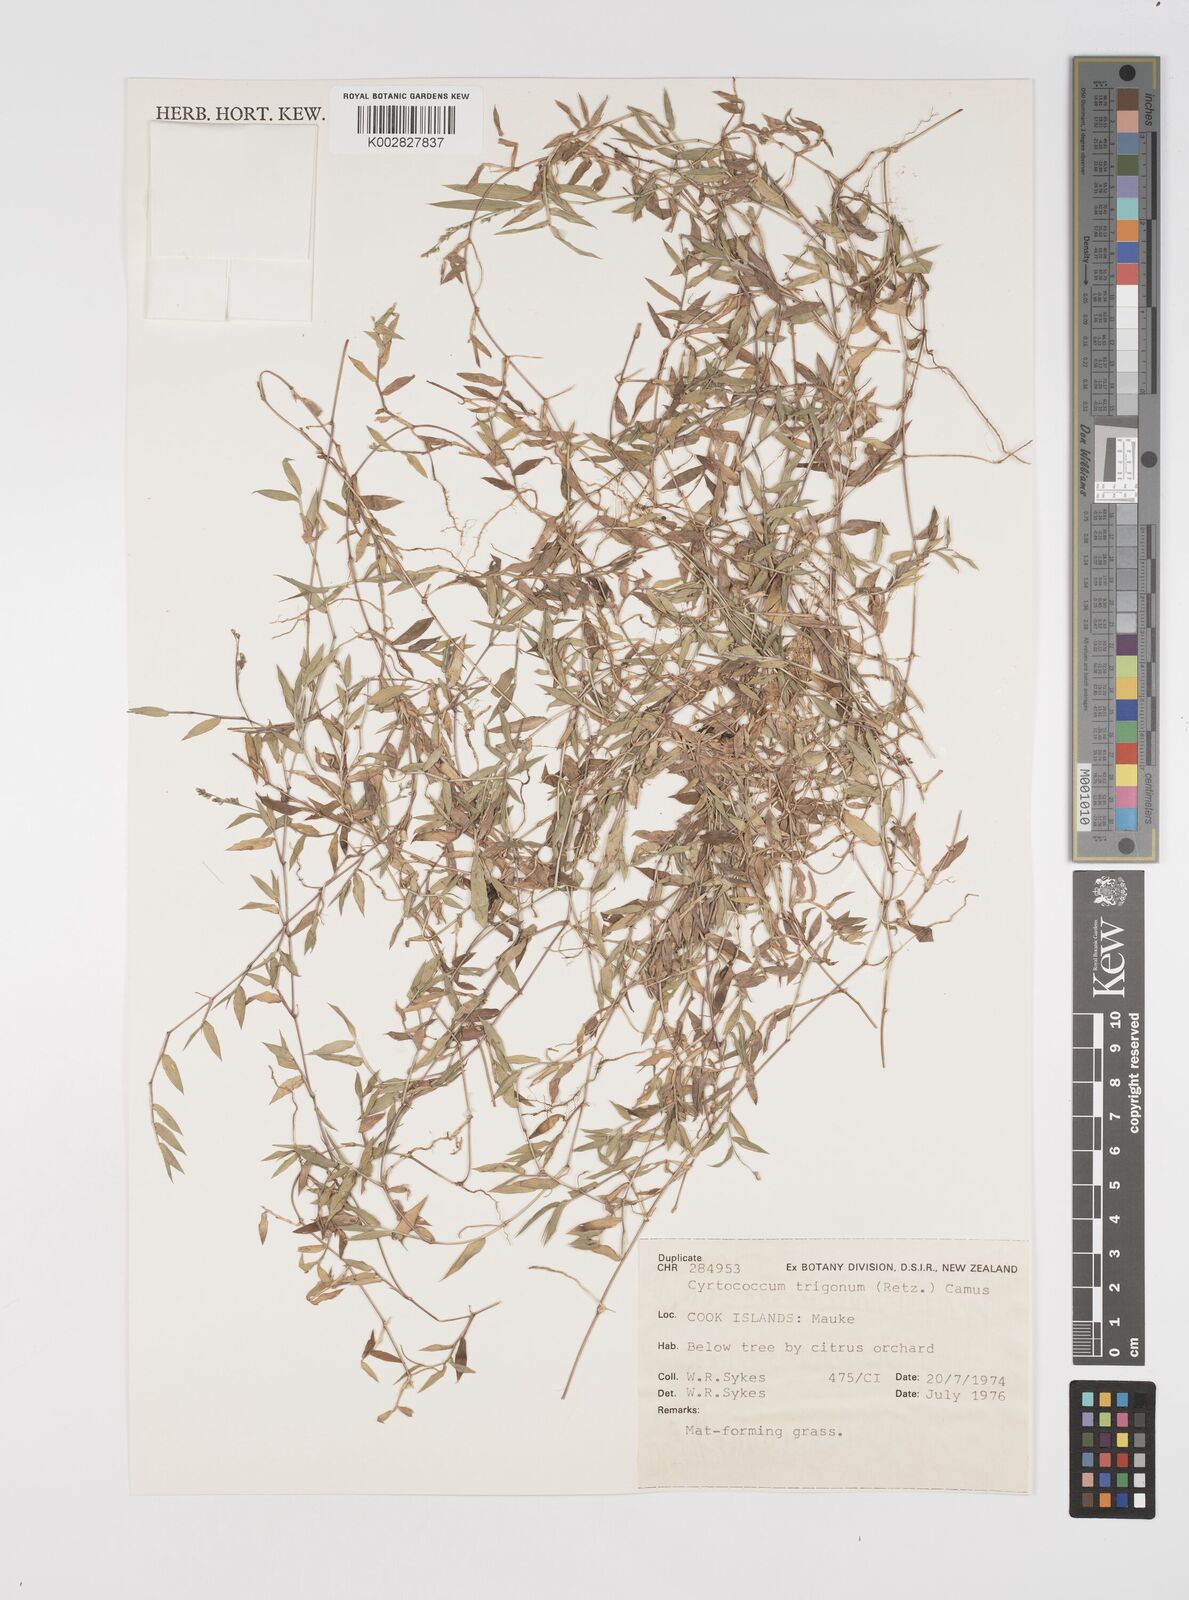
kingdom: Plantae
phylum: Tracheophyta
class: Liliopsida
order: Poales
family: Poaceae
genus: Cyrtococcum
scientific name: Cyrtococcum trigonum
